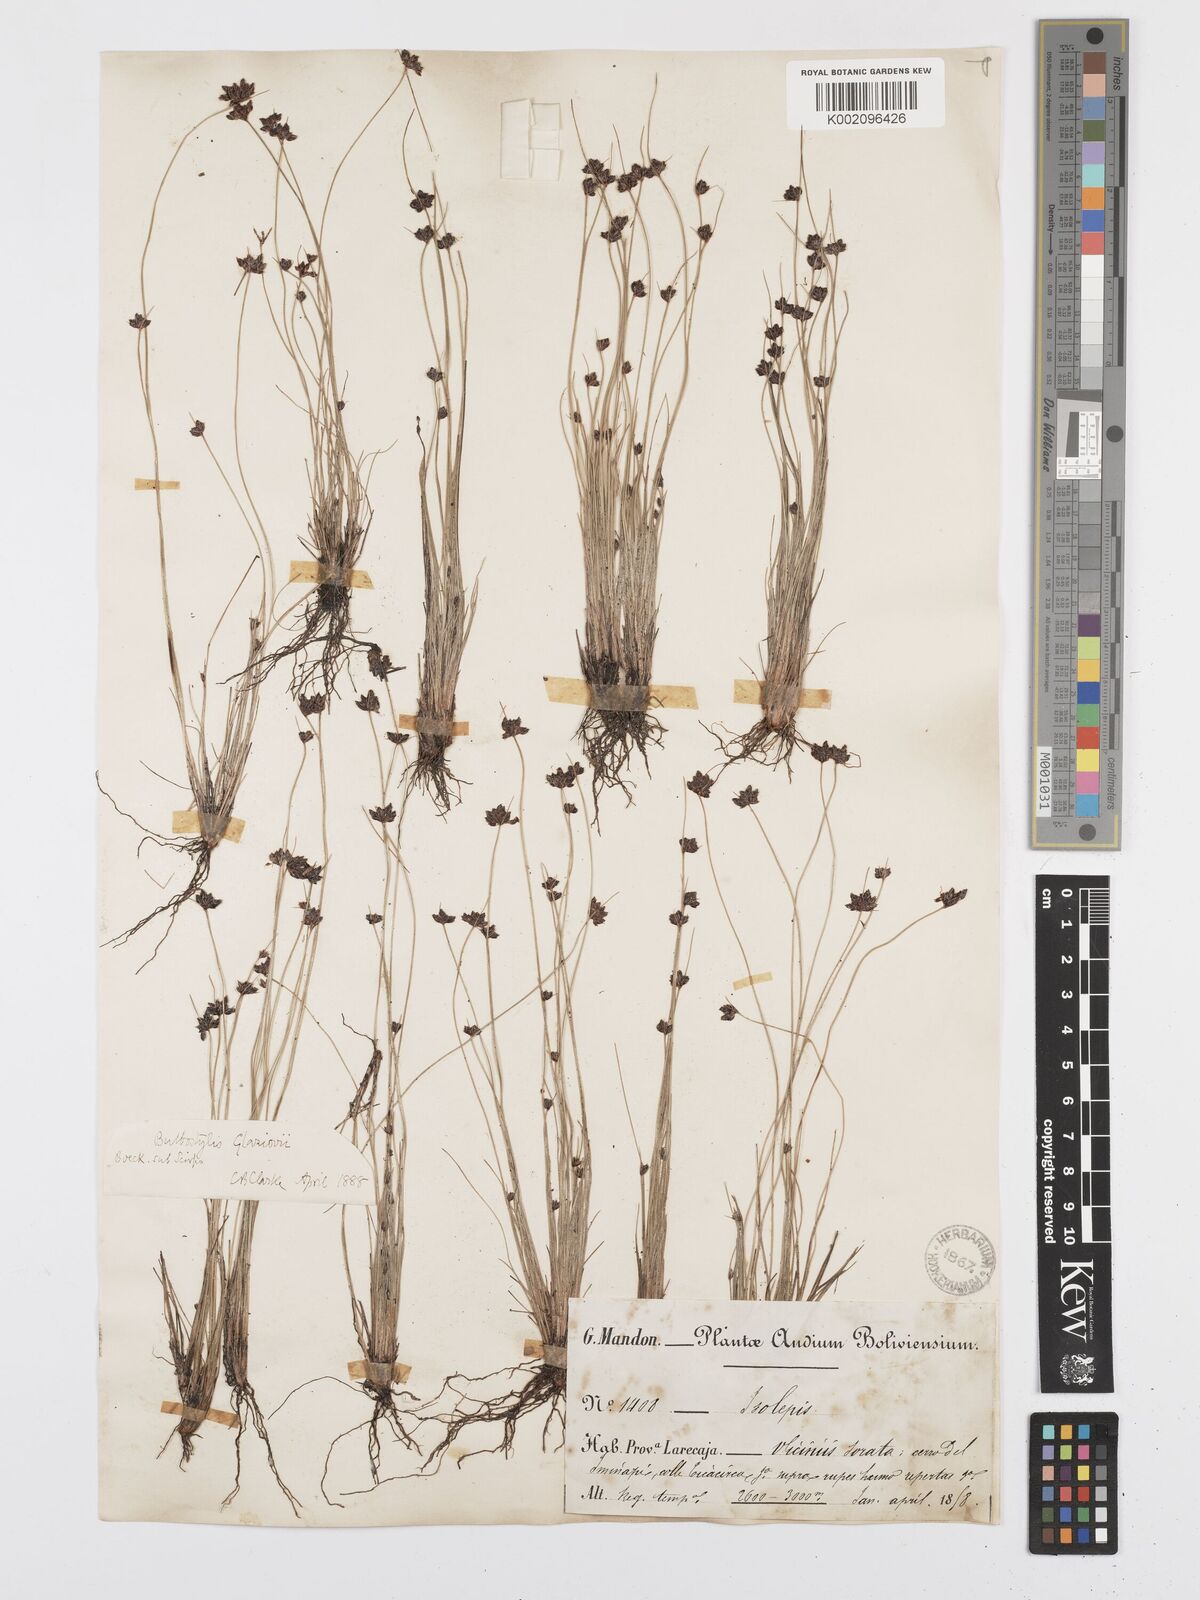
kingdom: Plantae
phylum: Tracheophyta
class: Liliopsida
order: Poales
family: Cyperaceae
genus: Bulbostylis
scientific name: Bulbostylis juncoides
